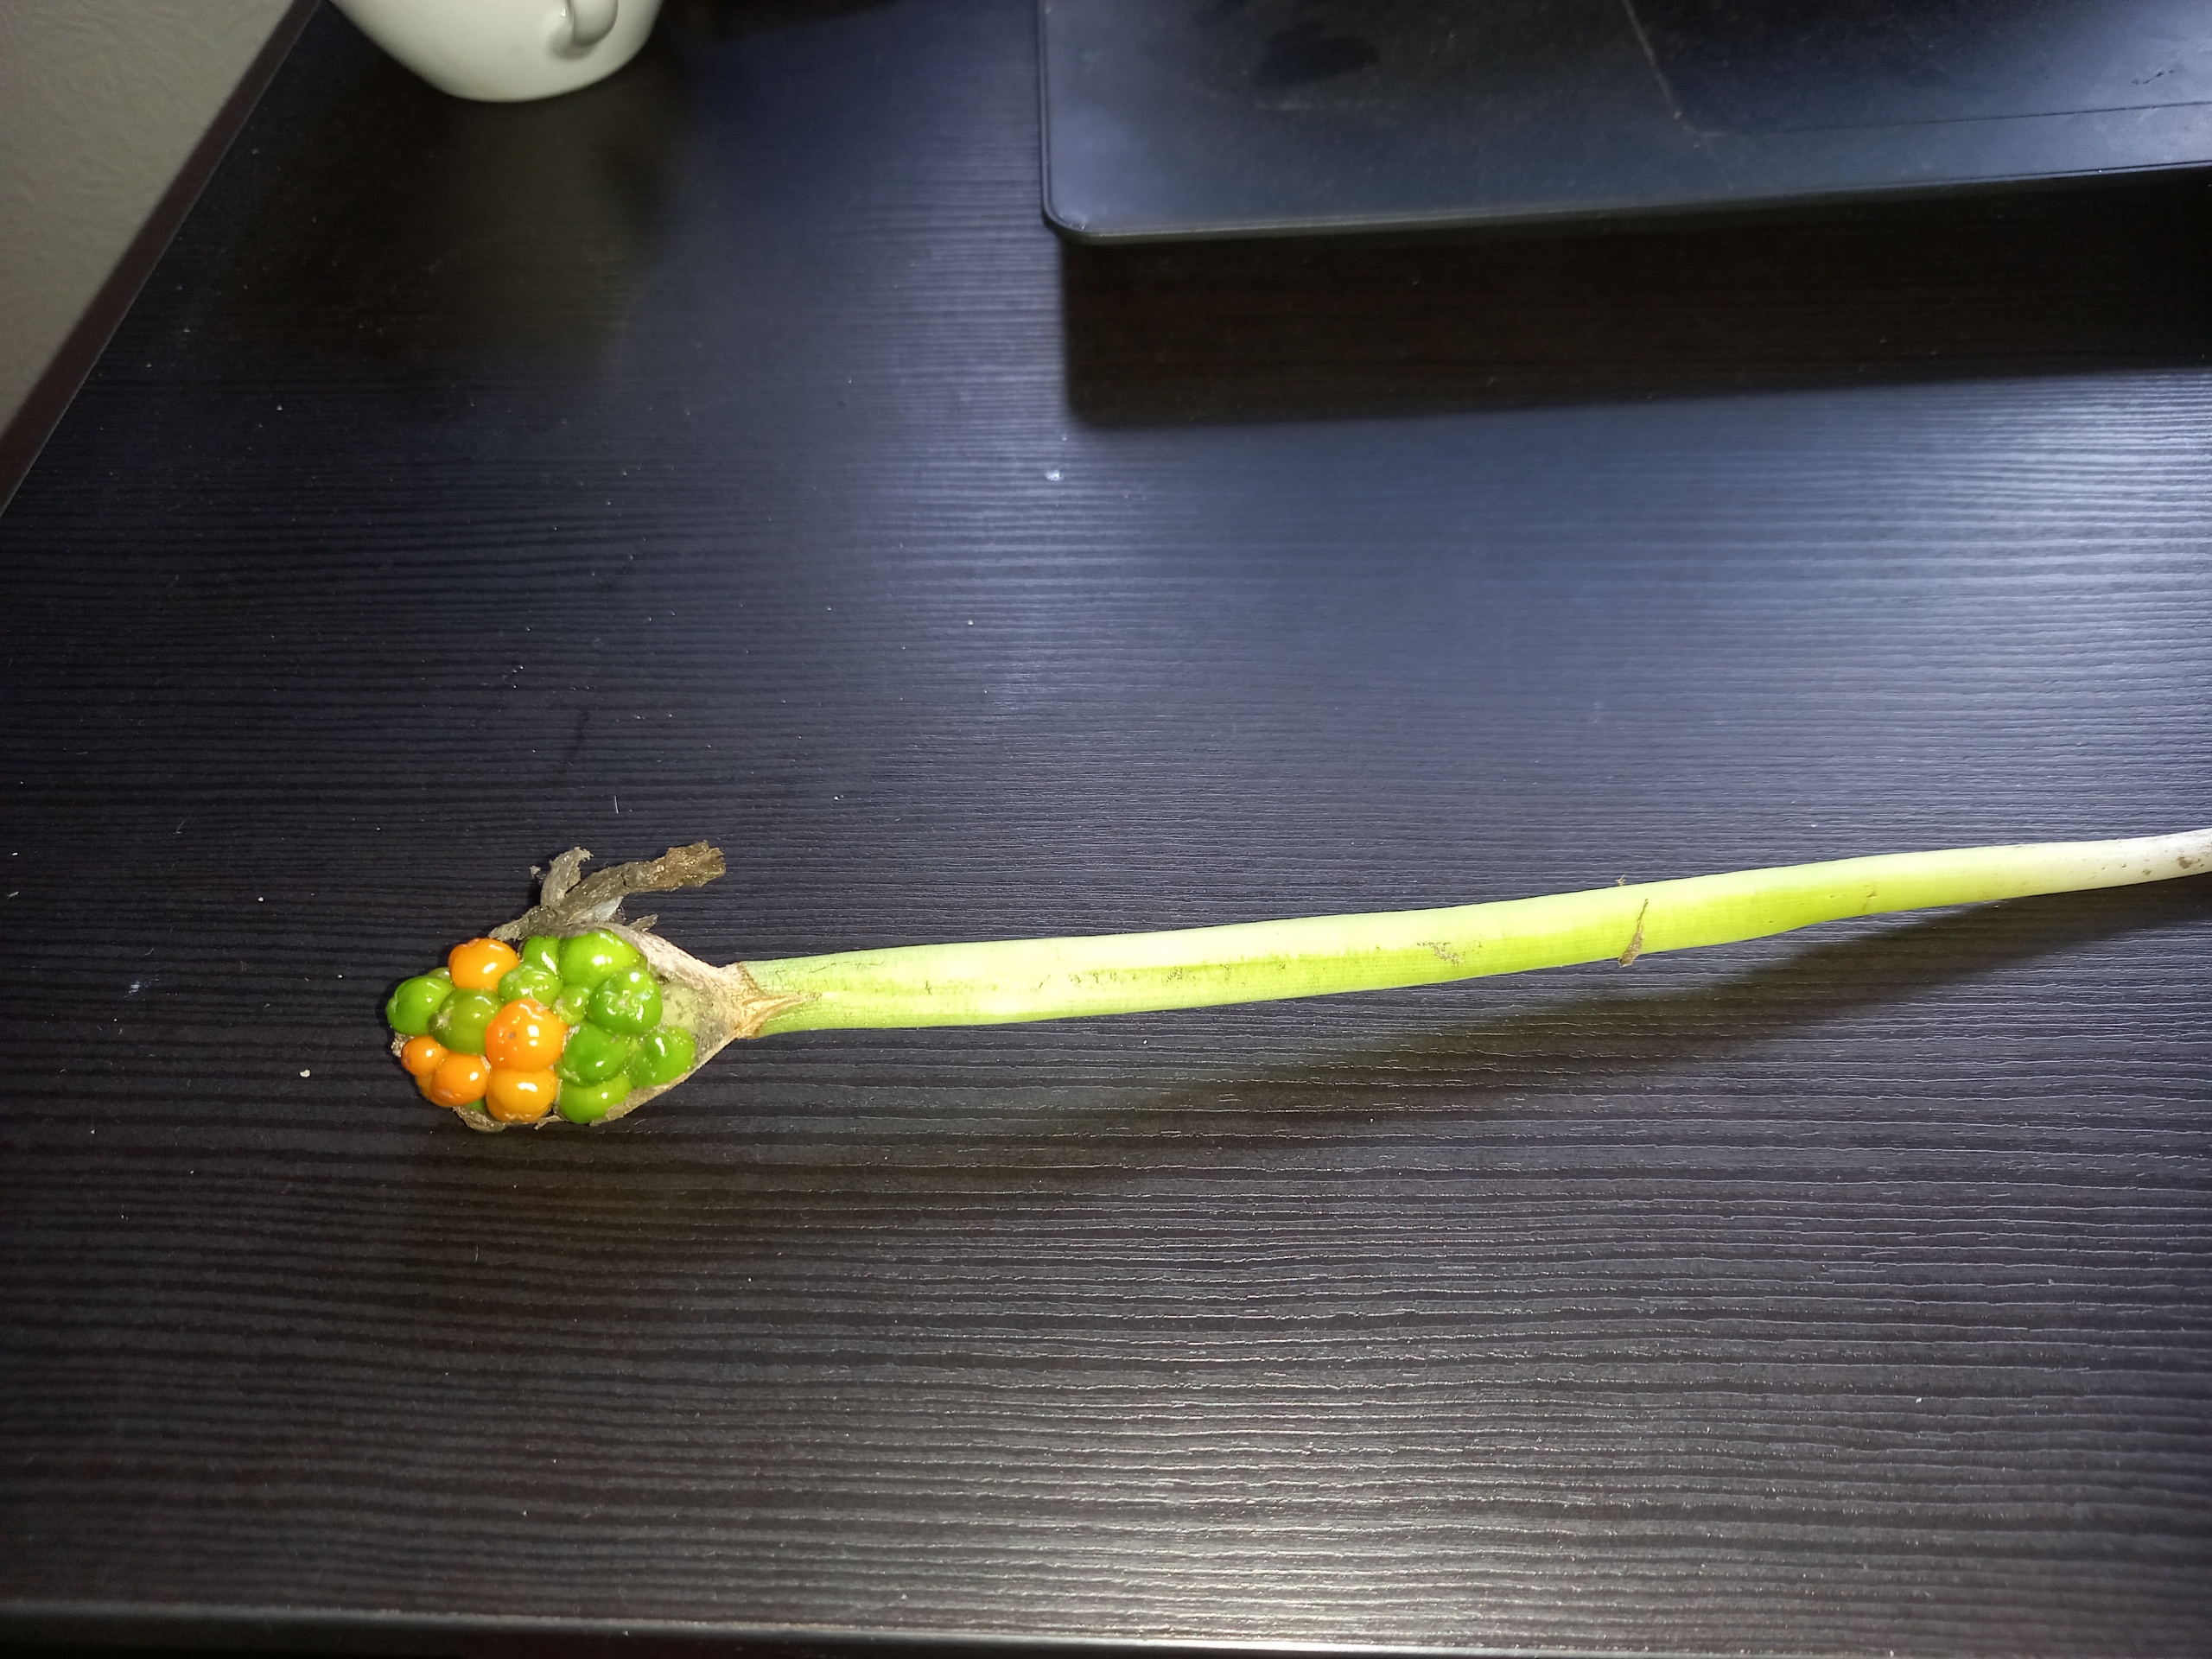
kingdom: Plantae
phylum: Tracheophyta
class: Liliopsida
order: Alismatales
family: Araceae
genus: Arum
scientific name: Arum
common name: Arumslægten
